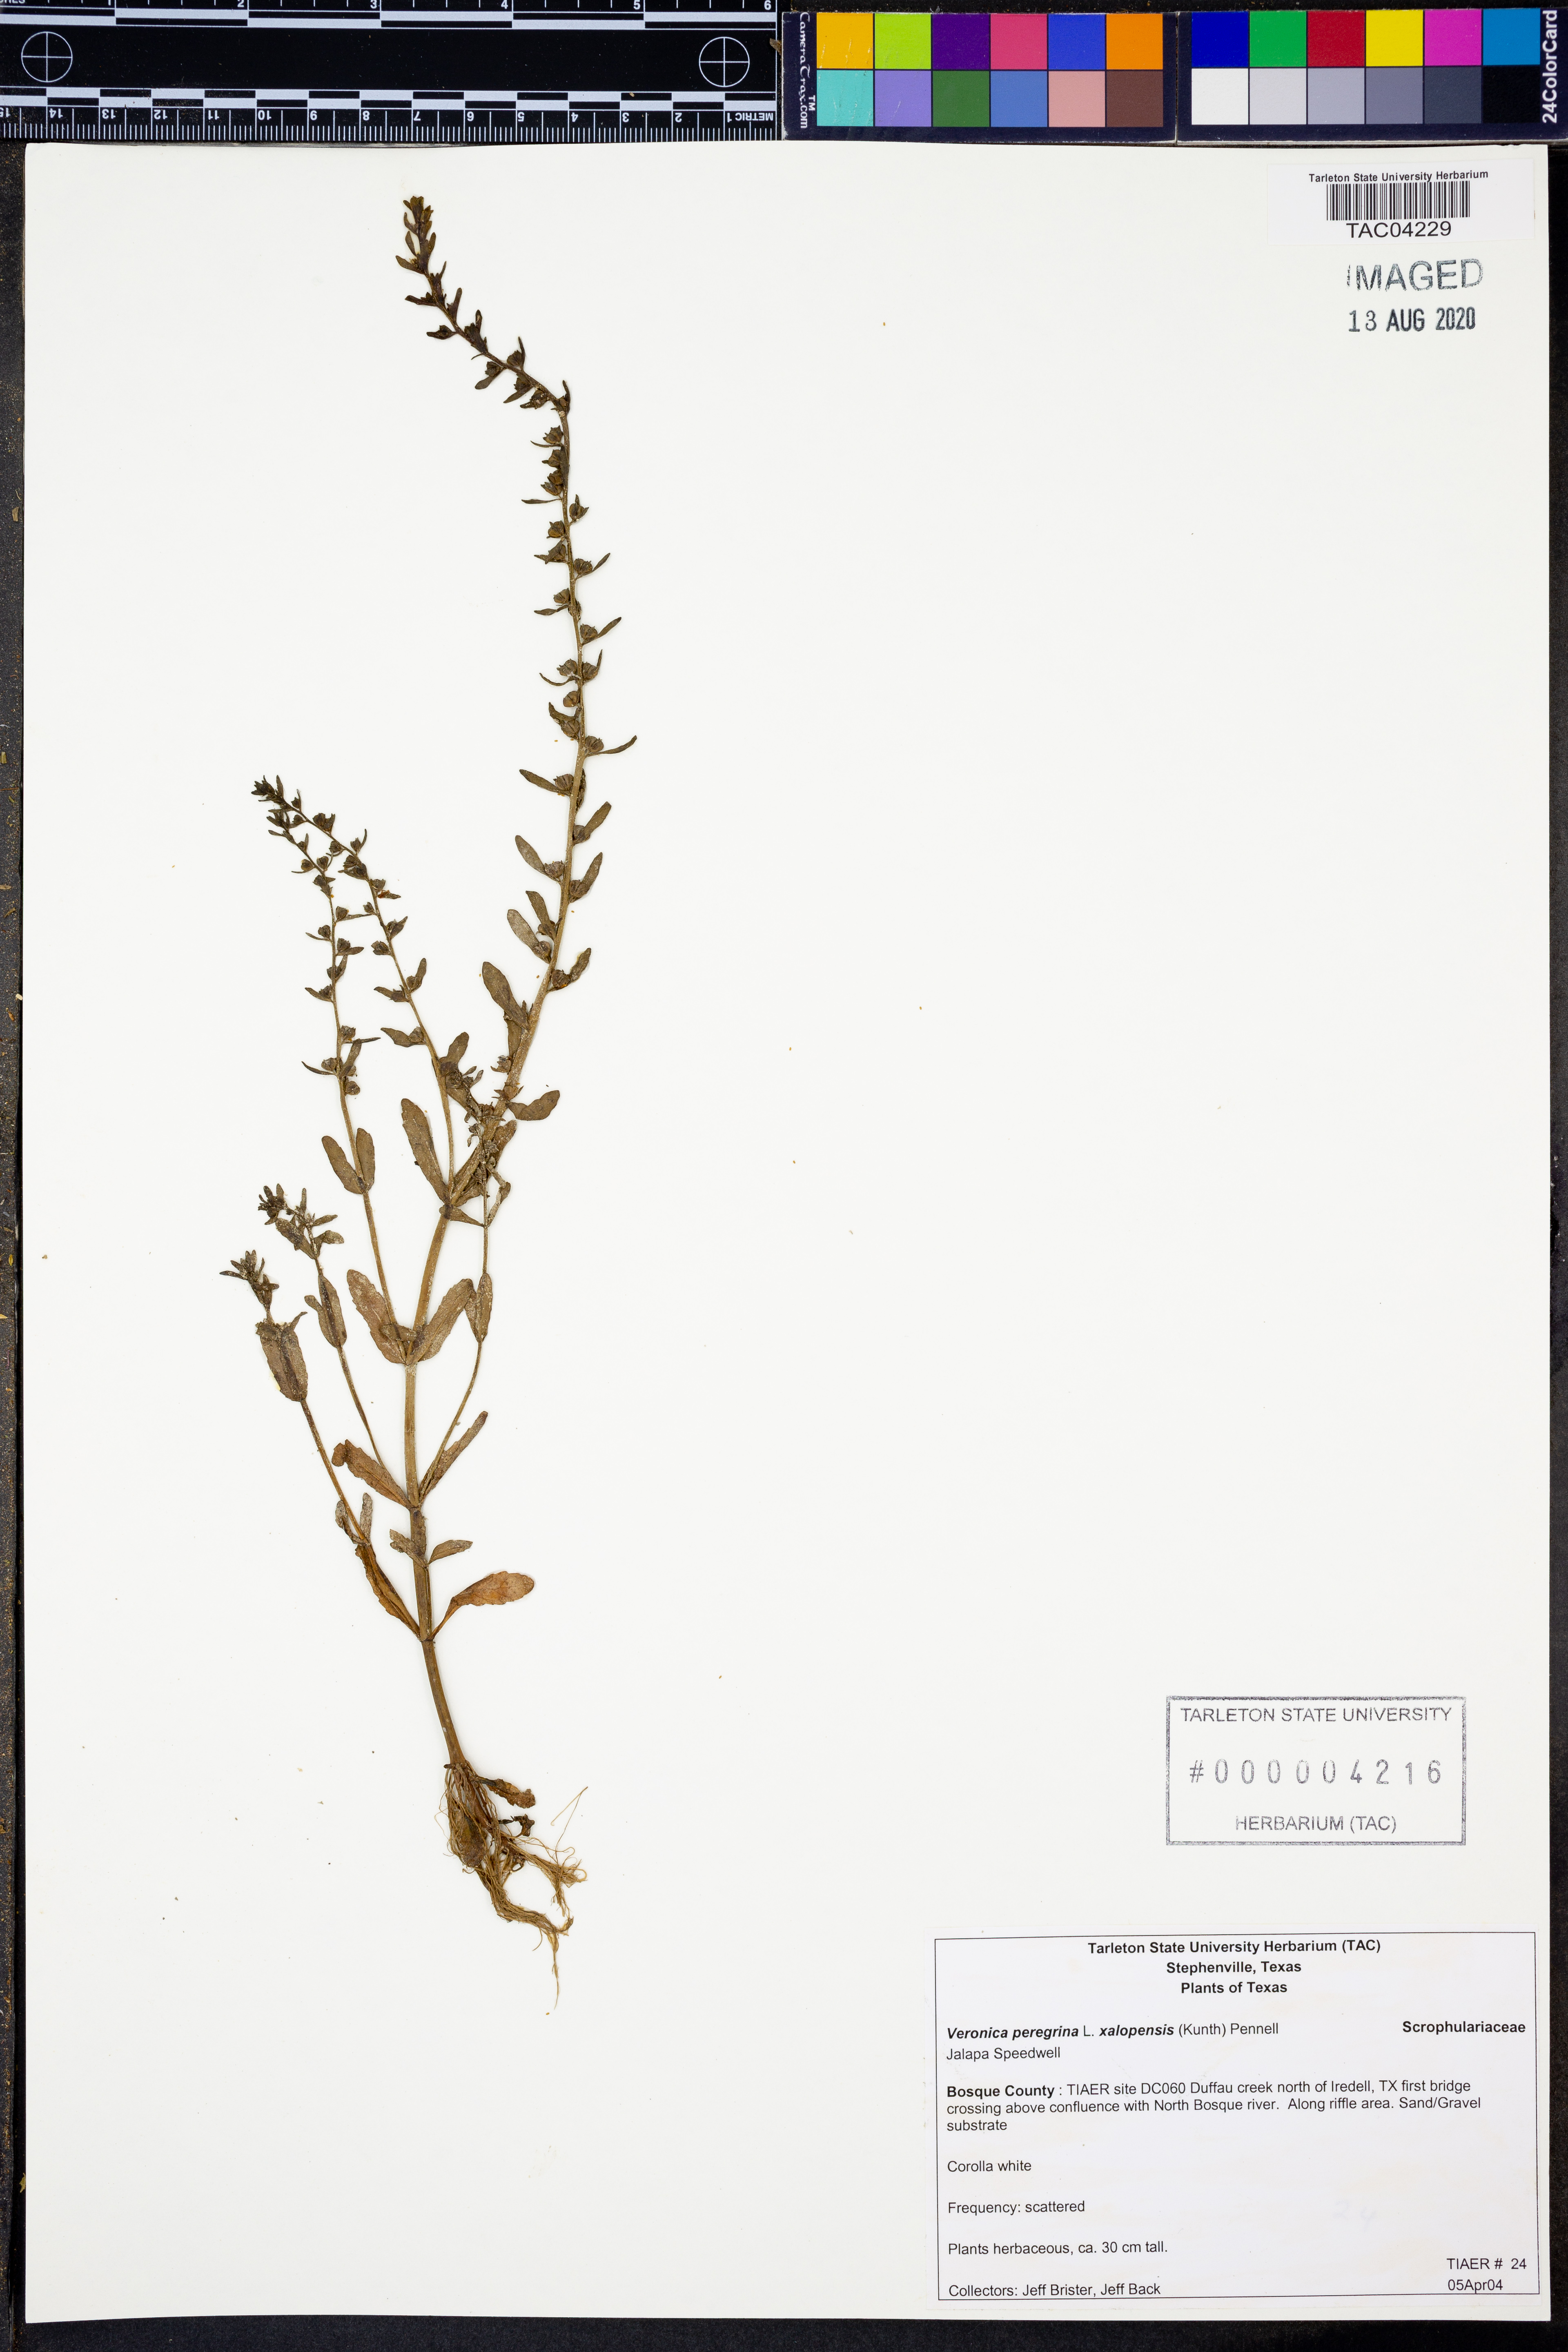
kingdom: Plantae
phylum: Tracheophyta
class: Magnoliopsida
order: Lamiales
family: Plantaginaceae
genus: Veronica
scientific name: Veronica peregrina
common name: Neckweed
